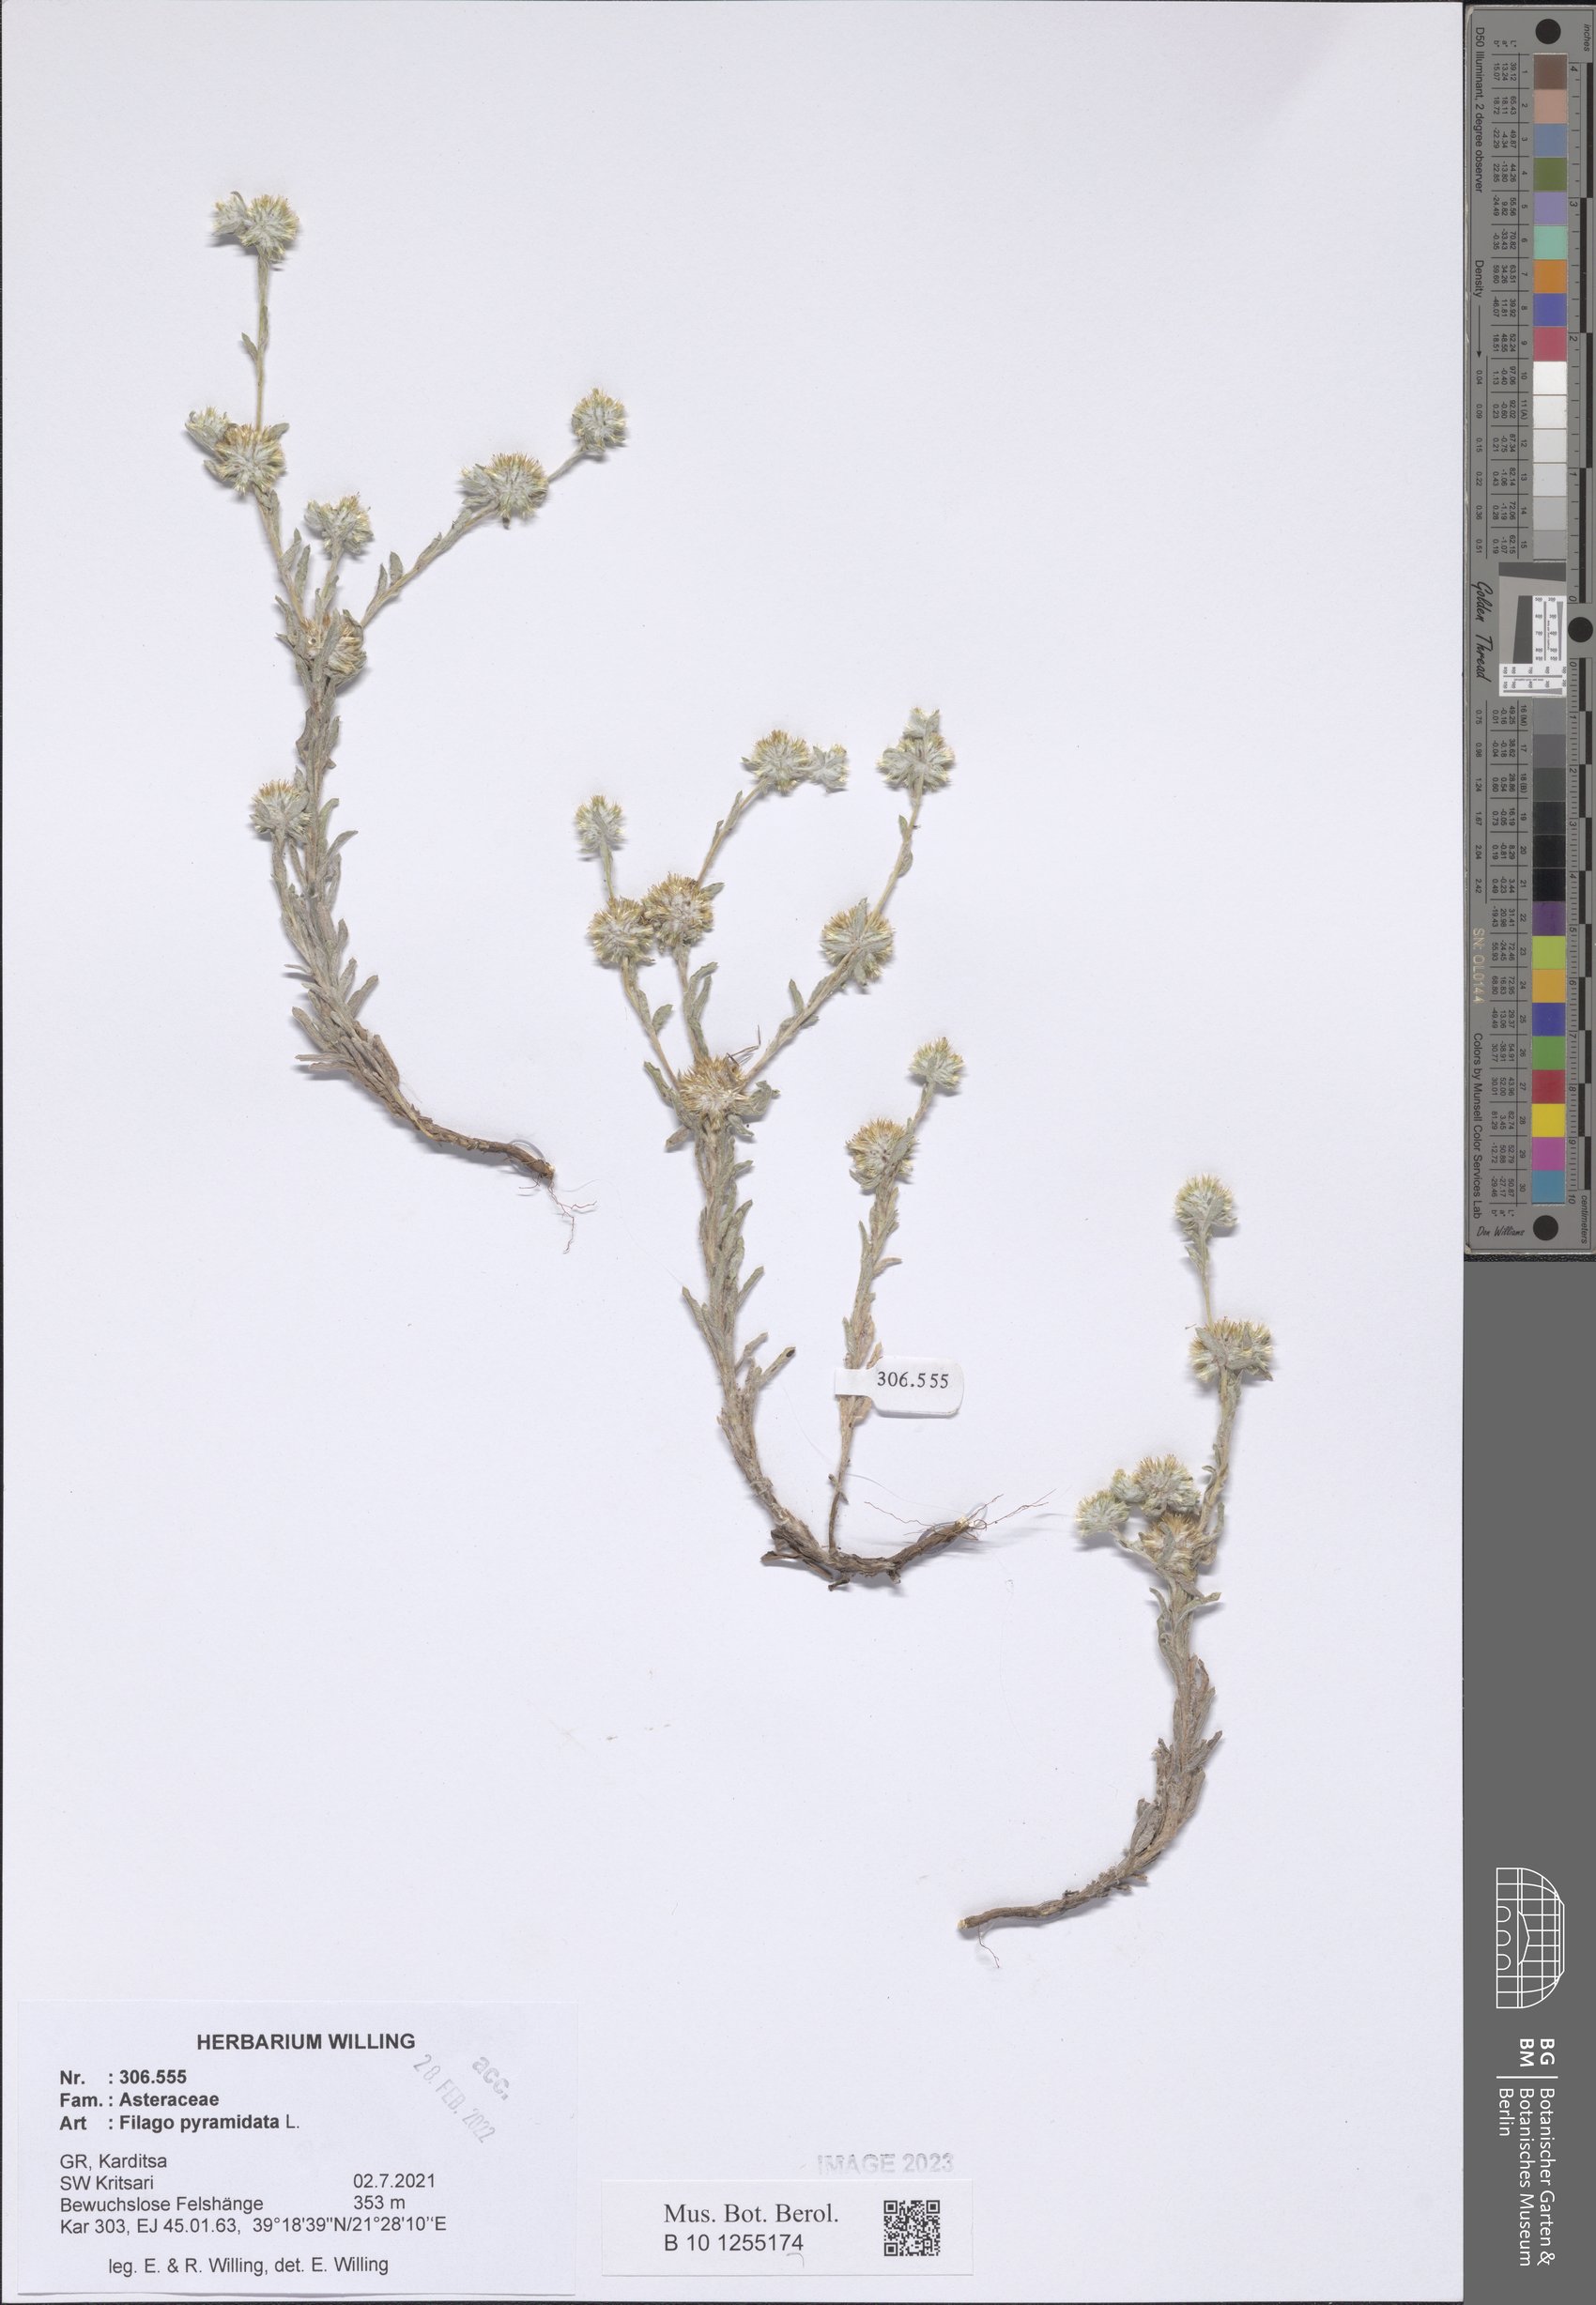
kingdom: Plantae
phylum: Tracheophyta
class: Magnoliopsida
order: Asterales
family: Asteraceae
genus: Filago
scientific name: Filago pyramidata
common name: Broad-leaved cudweed
